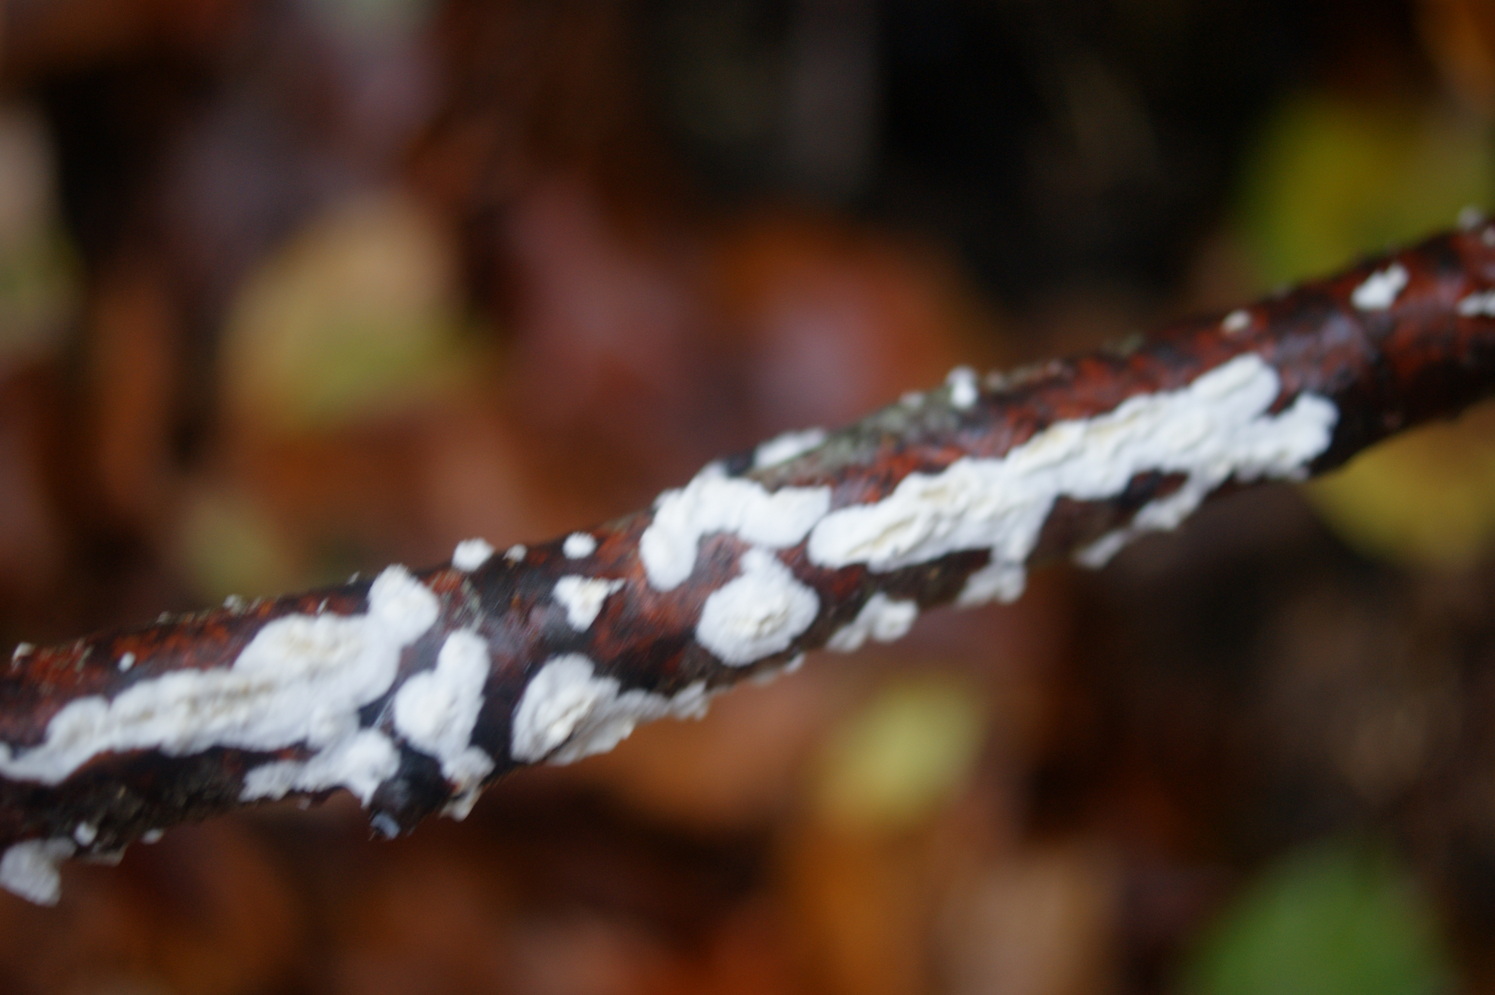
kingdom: Fungi
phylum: Basidiomycota
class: Agaricomycetes
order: Polyporales
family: Irpicaceae
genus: Byssomerulius
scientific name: Byssomerulius corium
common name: læder-åresvamp
